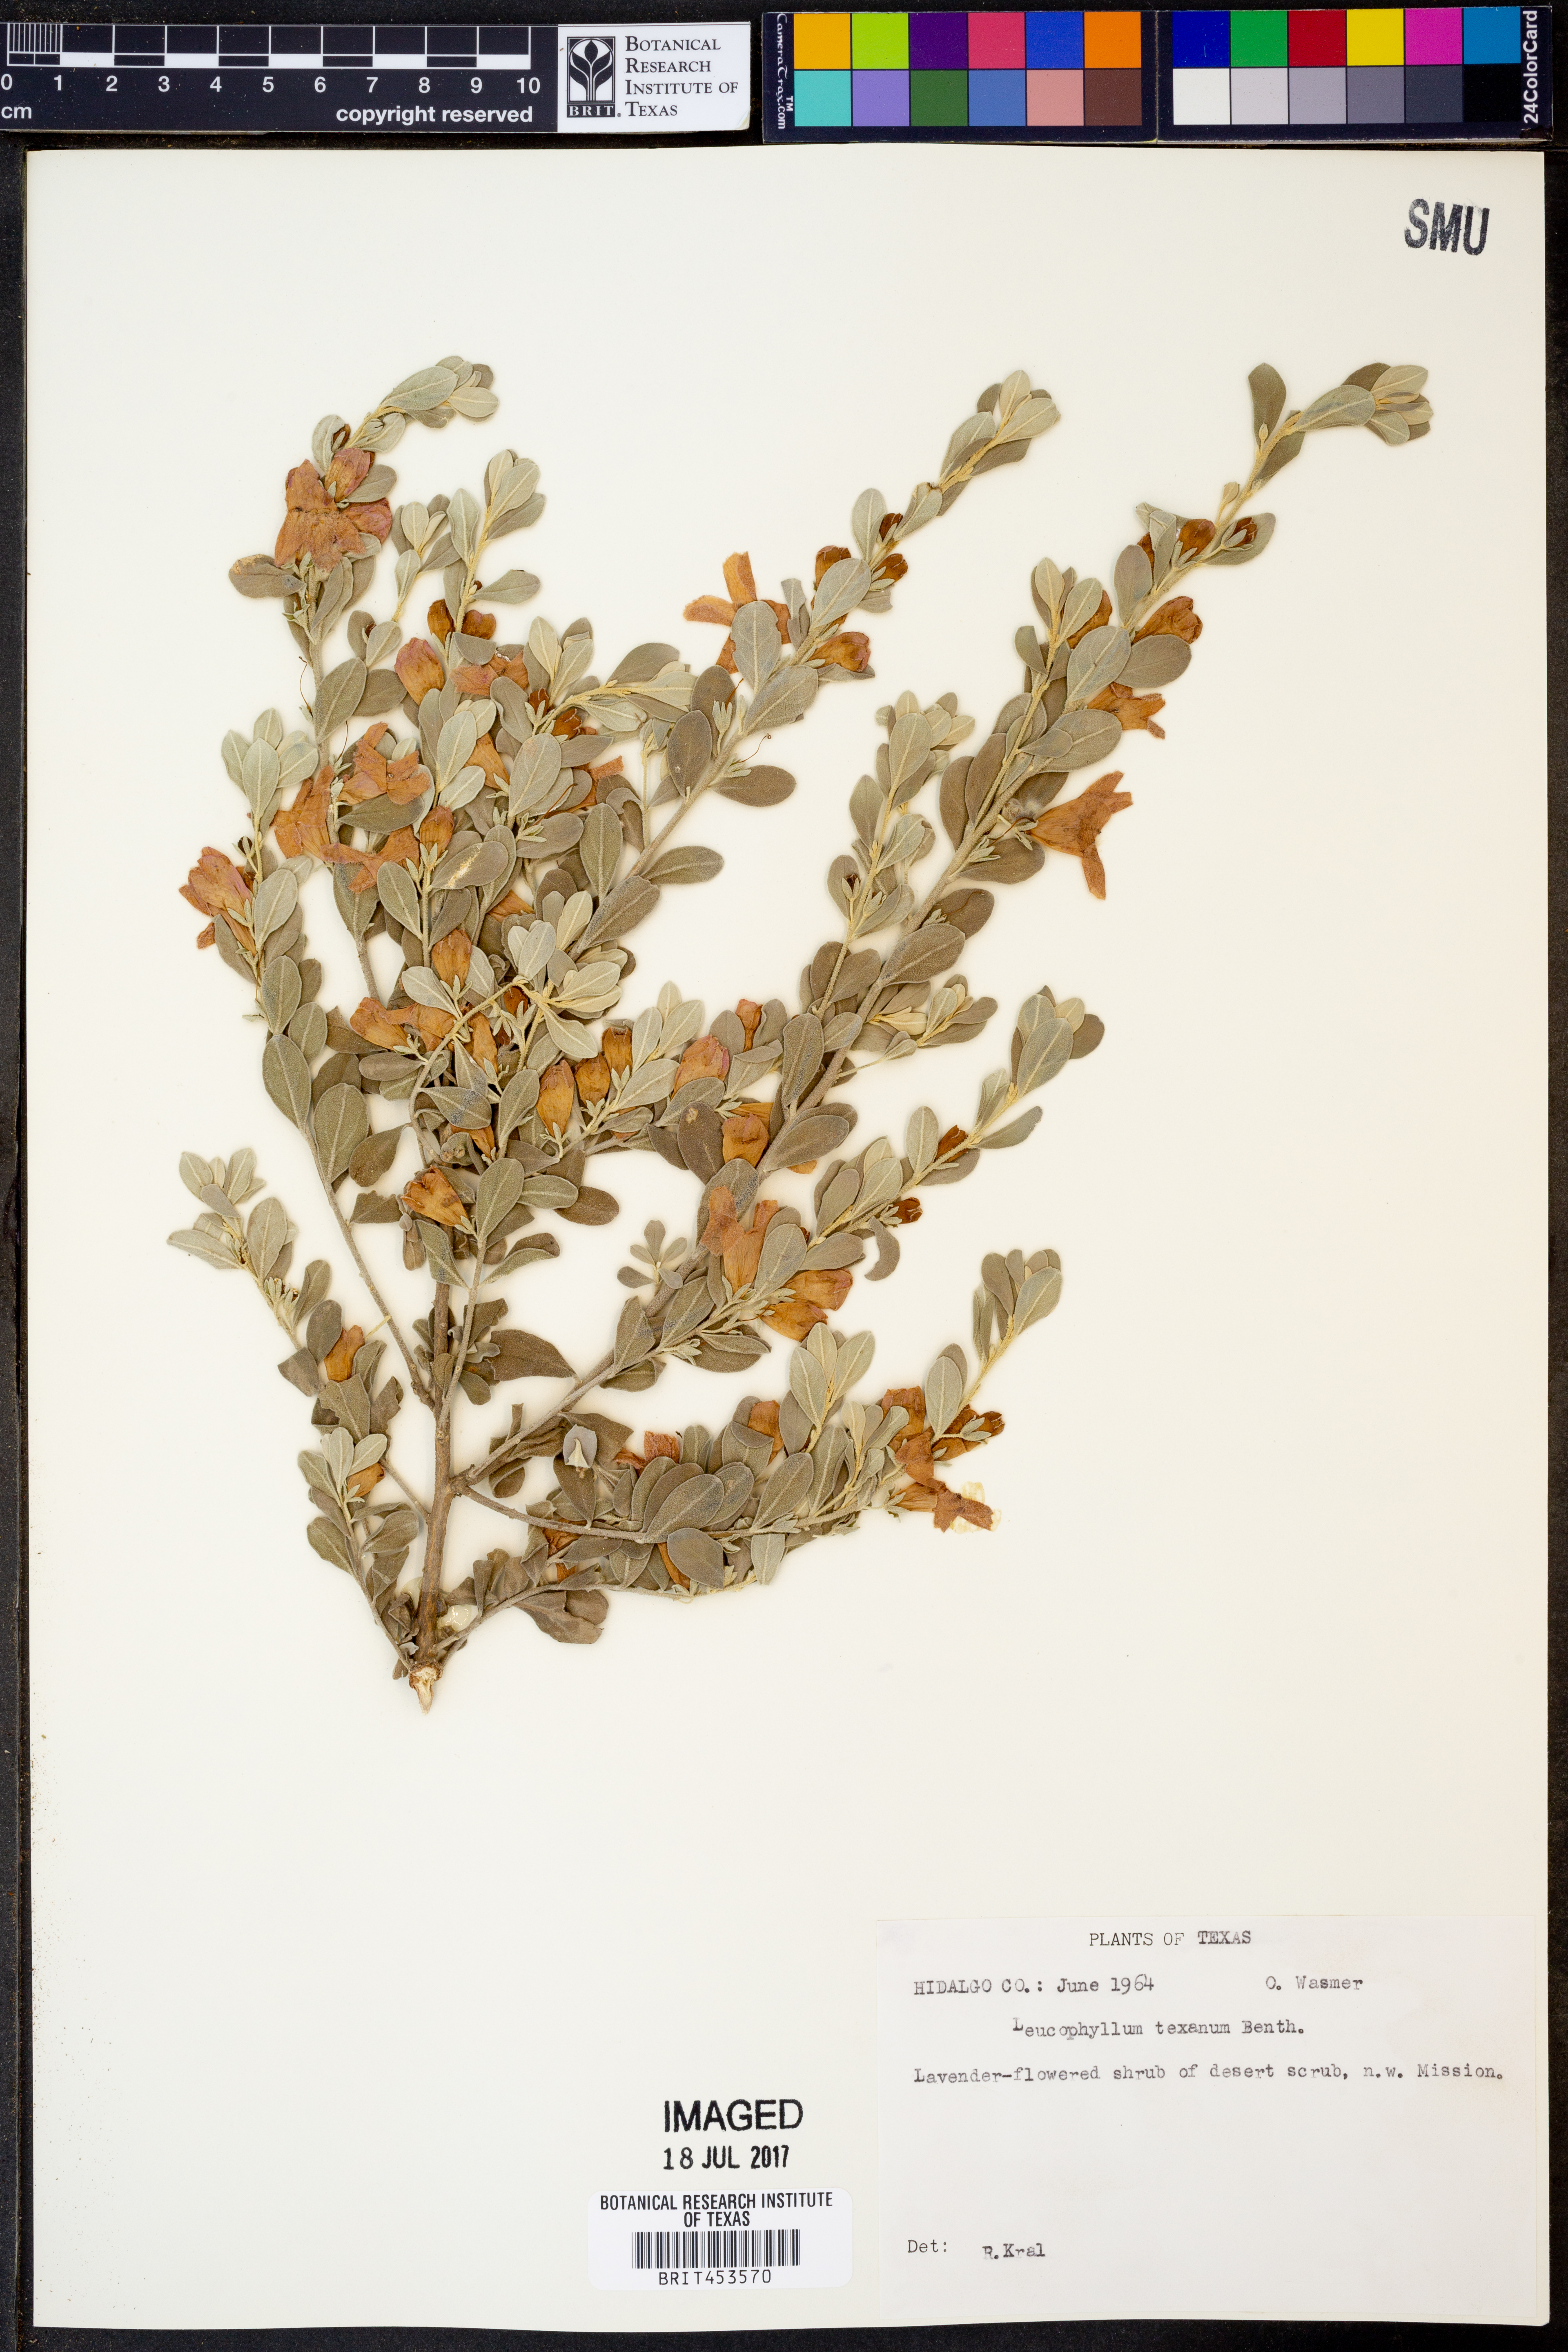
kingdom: Plantae
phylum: Tracheophyta
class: Magnoliopsida
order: Lamiales
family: Scrophulariaceae
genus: Leucophyllum
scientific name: Leucophyllum frutescens
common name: Texas silverleaf
